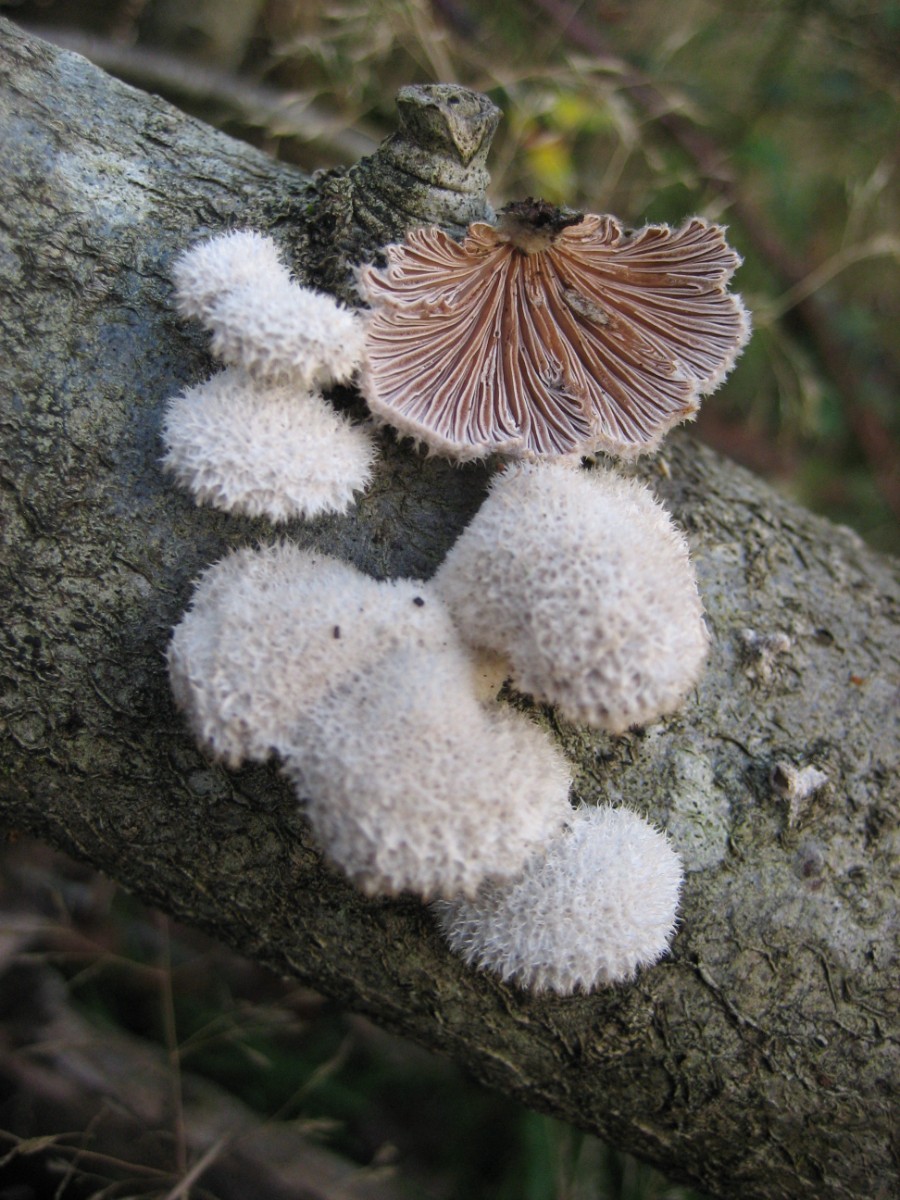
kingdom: Fungi
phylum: Basidiomycota
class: Agaricomycetes
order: Agaricales
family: Schizophyllaceae
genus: Schizophyllum
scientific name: Schizophyllum commune
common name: kløvblad
